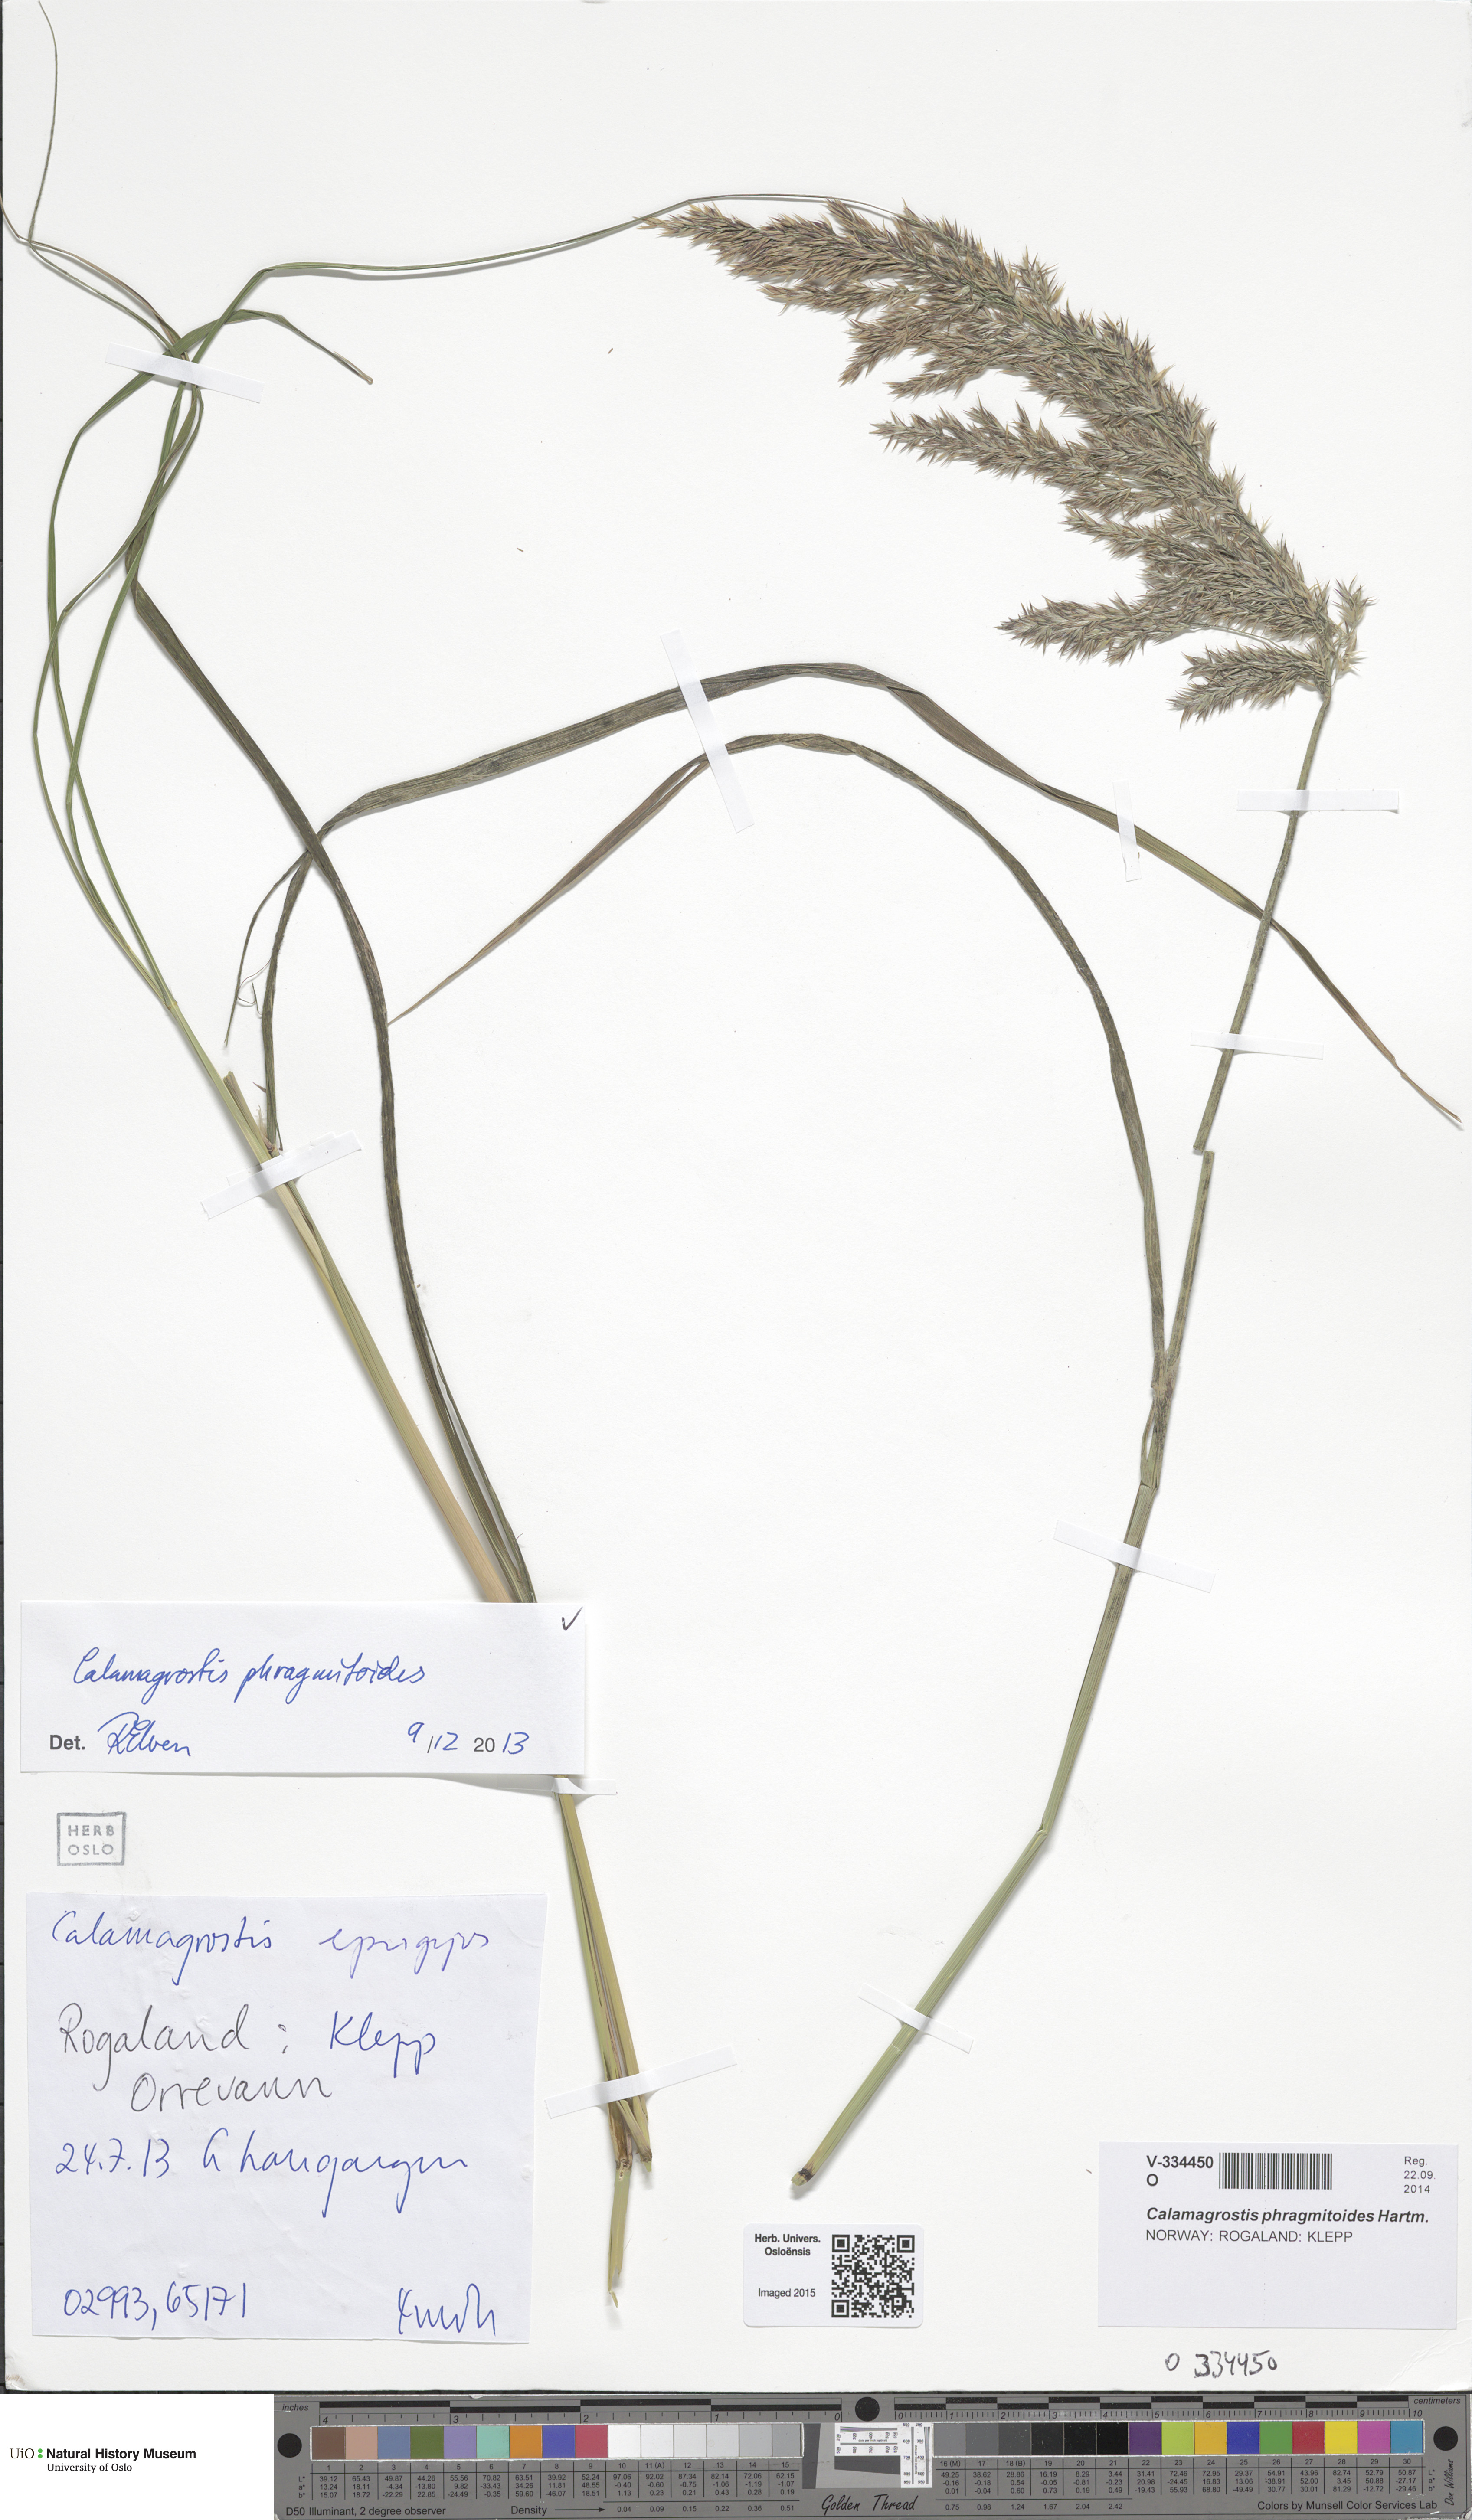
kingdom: Plantae
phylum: Tracheophyta
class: Liliopsida
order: Poales
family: Poaceae
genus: Calamagrostis
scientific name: Calamagrostis purpurea
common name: Scandinavian small-reed
